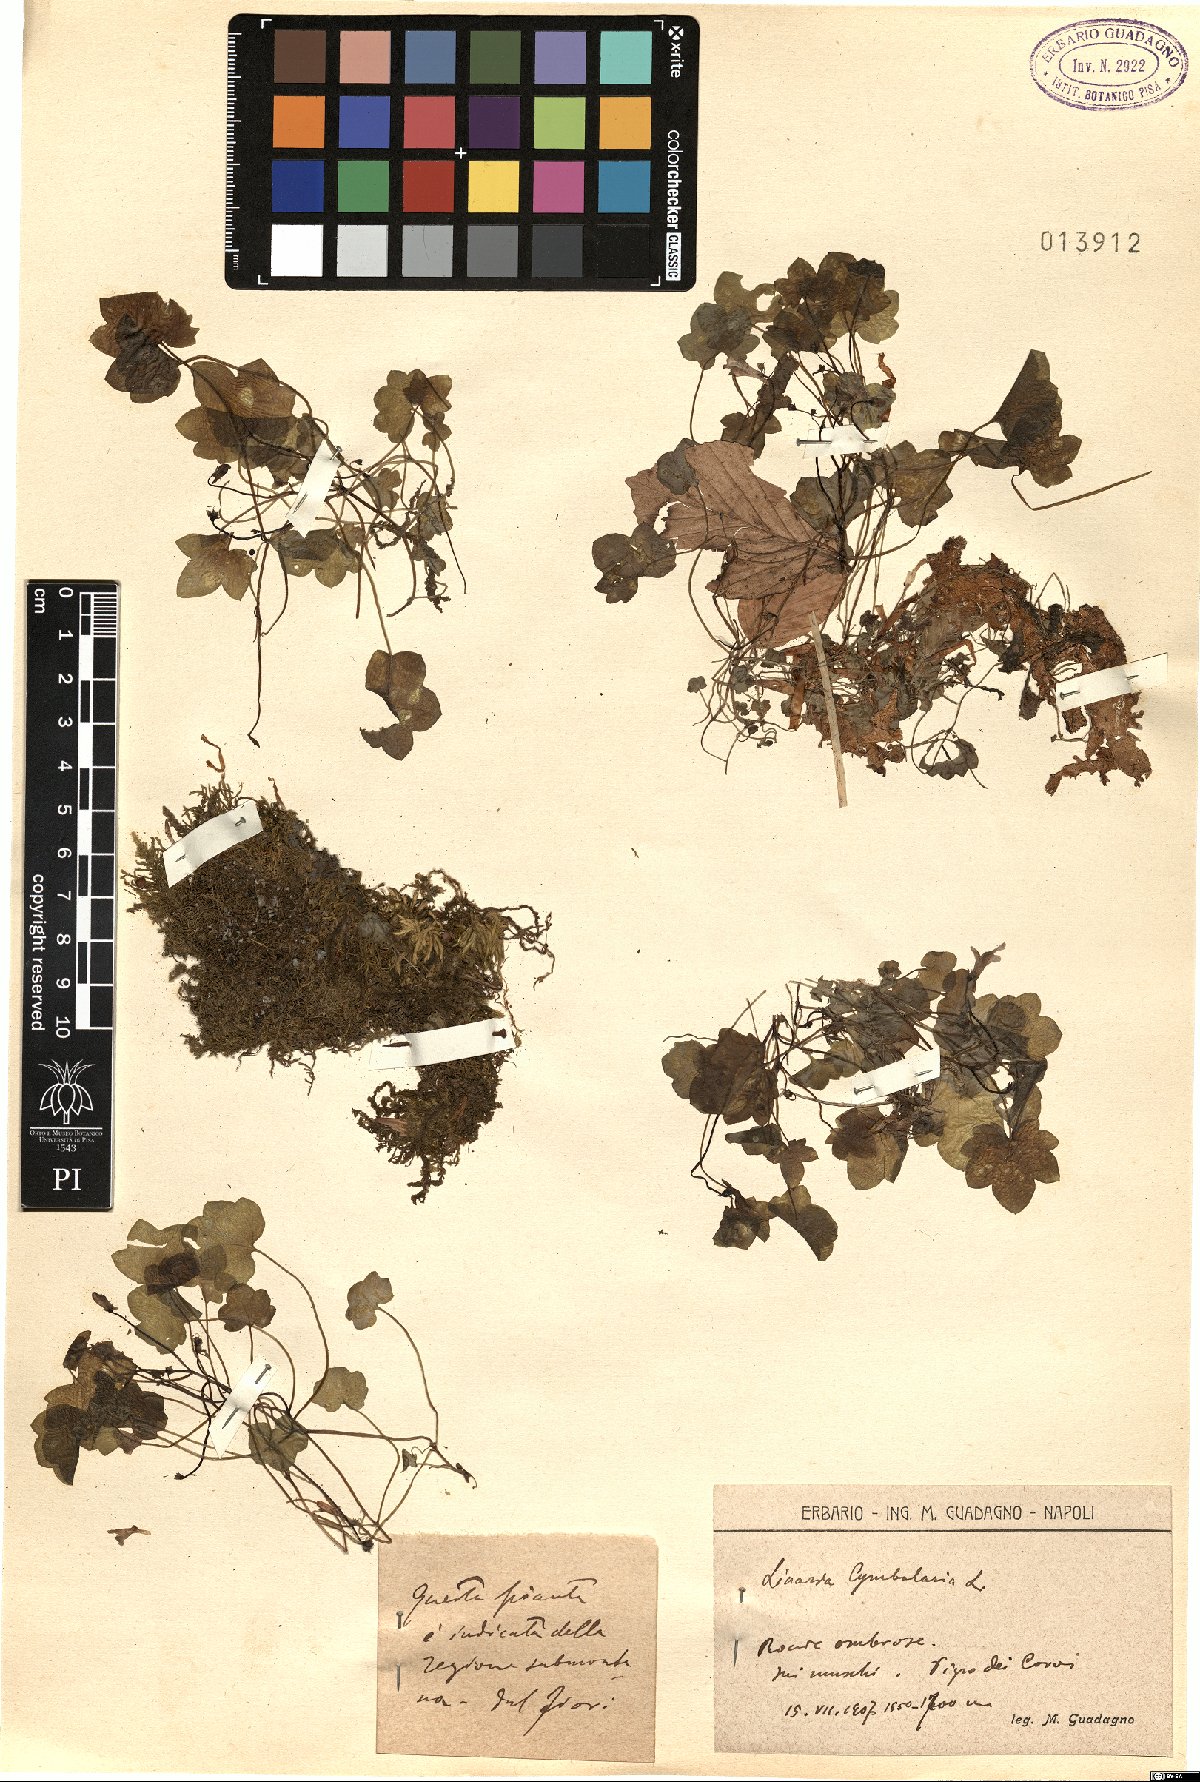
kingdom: Plantae
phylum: Tracheophyta
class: Magnoliopsida
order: Lamiales
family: Plantaginaceae
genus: Cymbalaria
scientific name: Cymbalaria muralis
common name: Ivy-leaved toadflax
